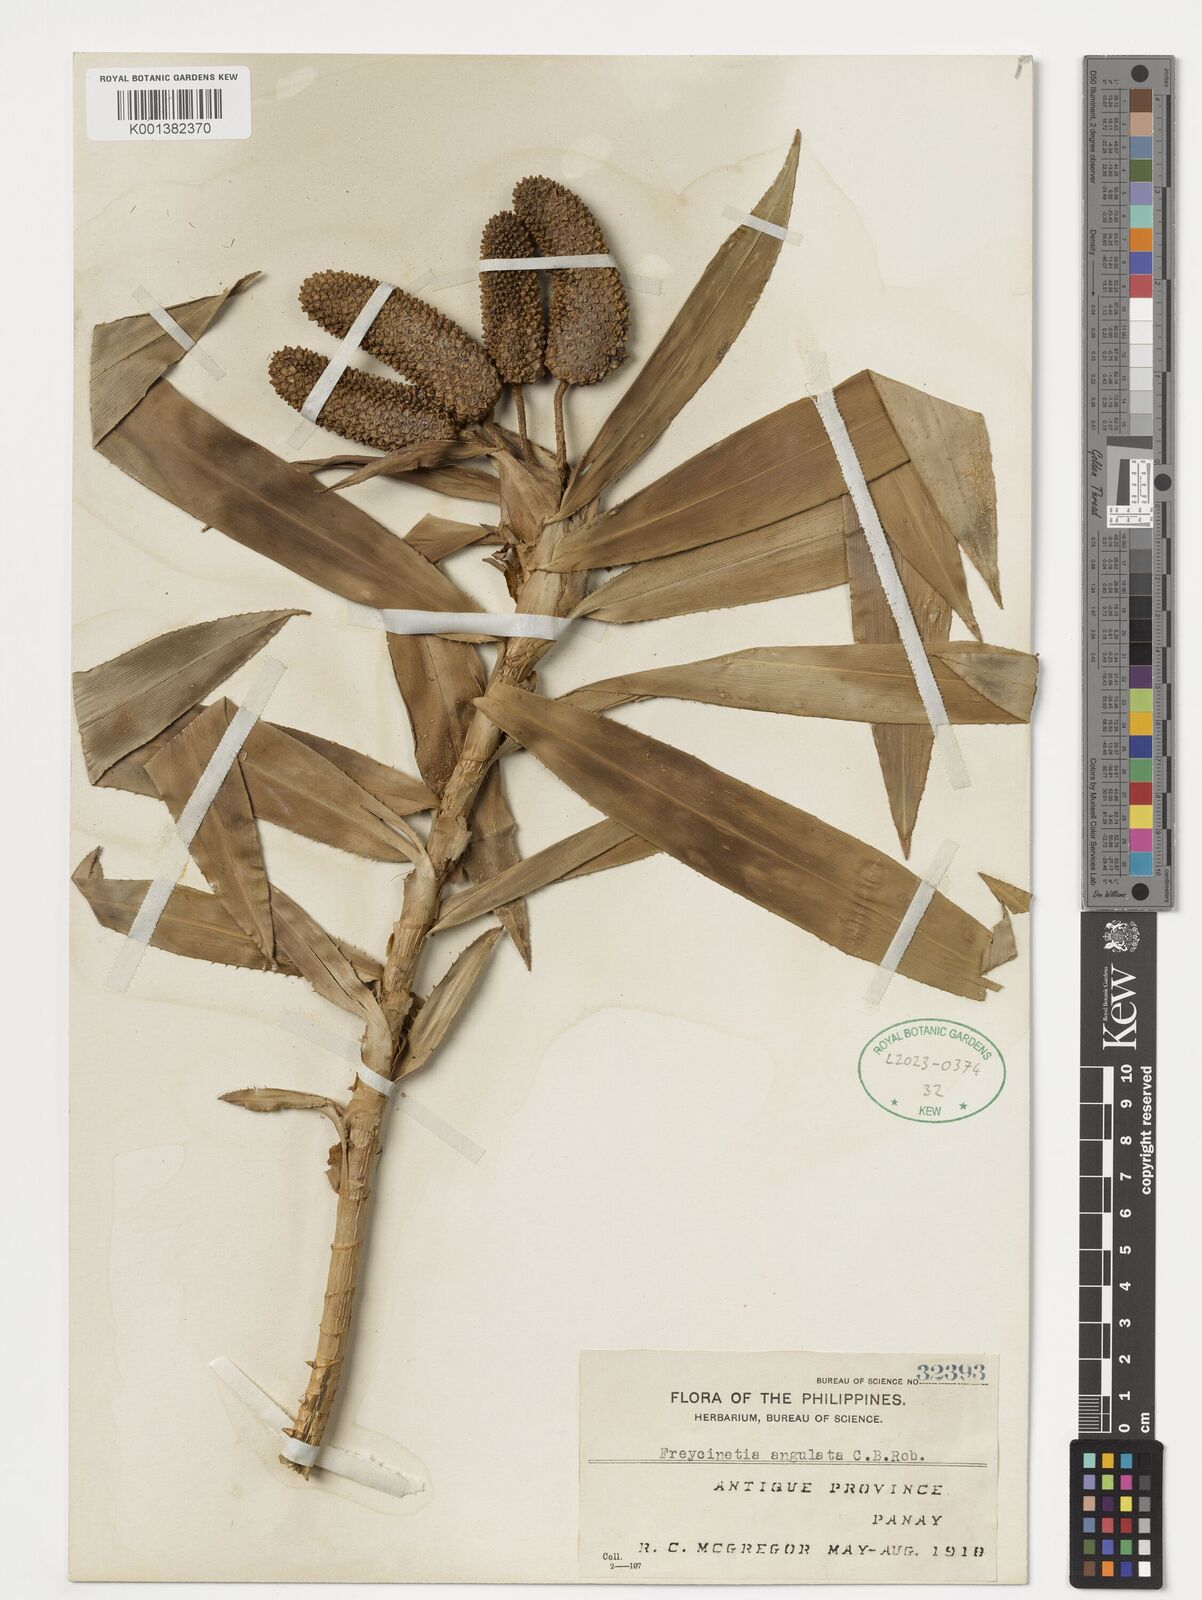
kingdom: Plantae
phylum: Tracheophyta
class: Liliopsida
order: Pandanales
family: Pandanaceae
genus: Freycinetia
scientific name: Freycinetia angulata
